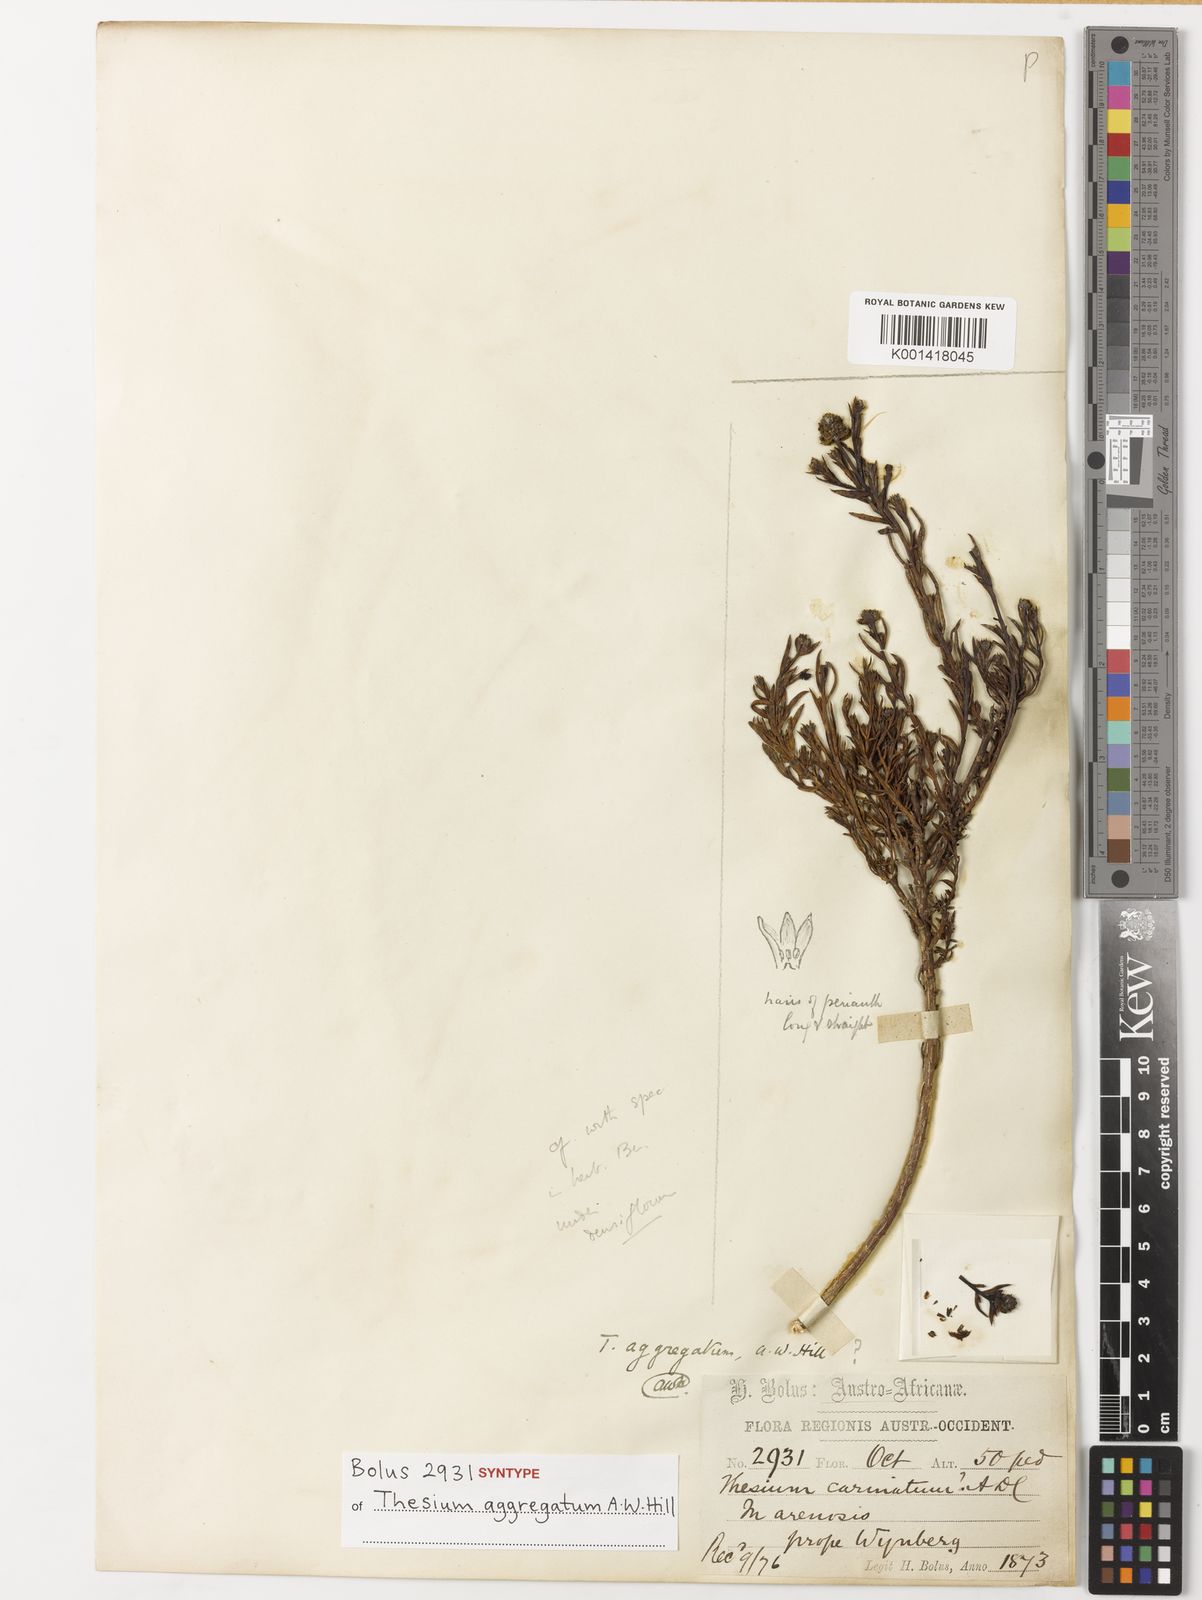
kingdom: Plantae
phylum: Tracheophyta
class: Magnoliopsida
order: Santalales
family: Thesiaceae
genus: Thesium
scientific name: Thesium aggregatum
